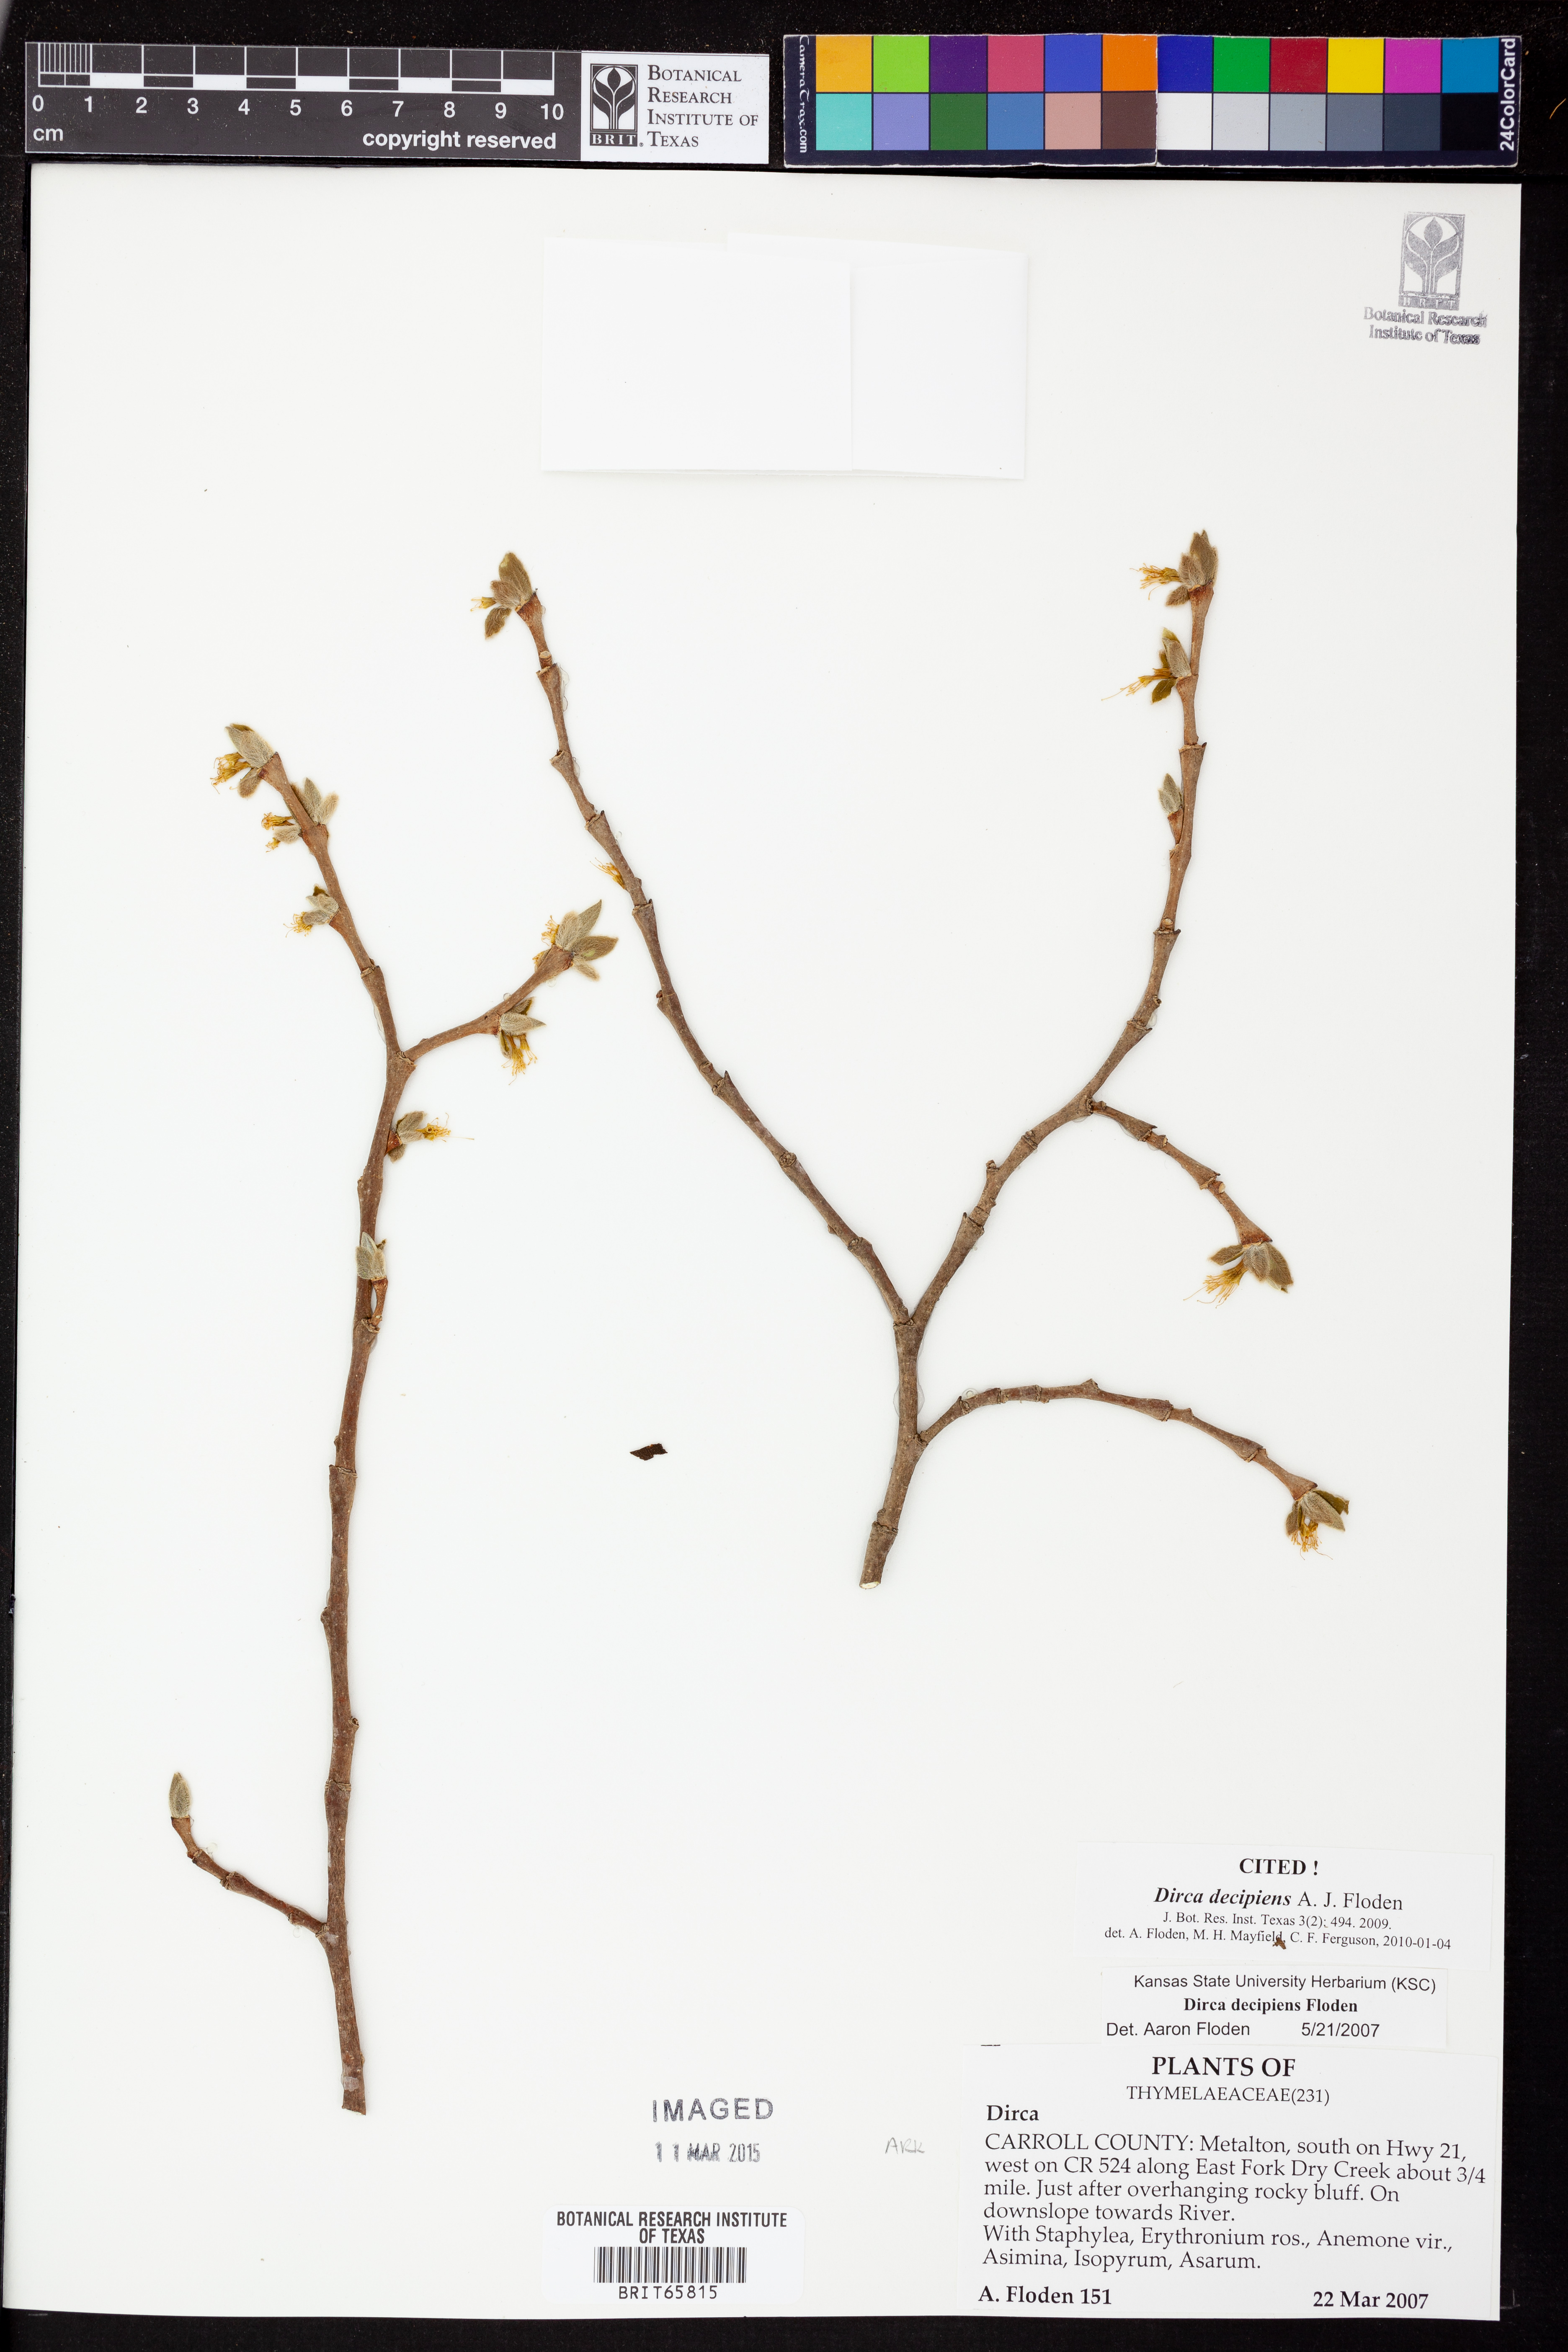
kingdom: Plantae
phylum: Tracheophyta
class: Magnoliopsida
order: Malvales
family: Thymelaeaceae
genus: Dirca
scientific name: Dirca decipiens
